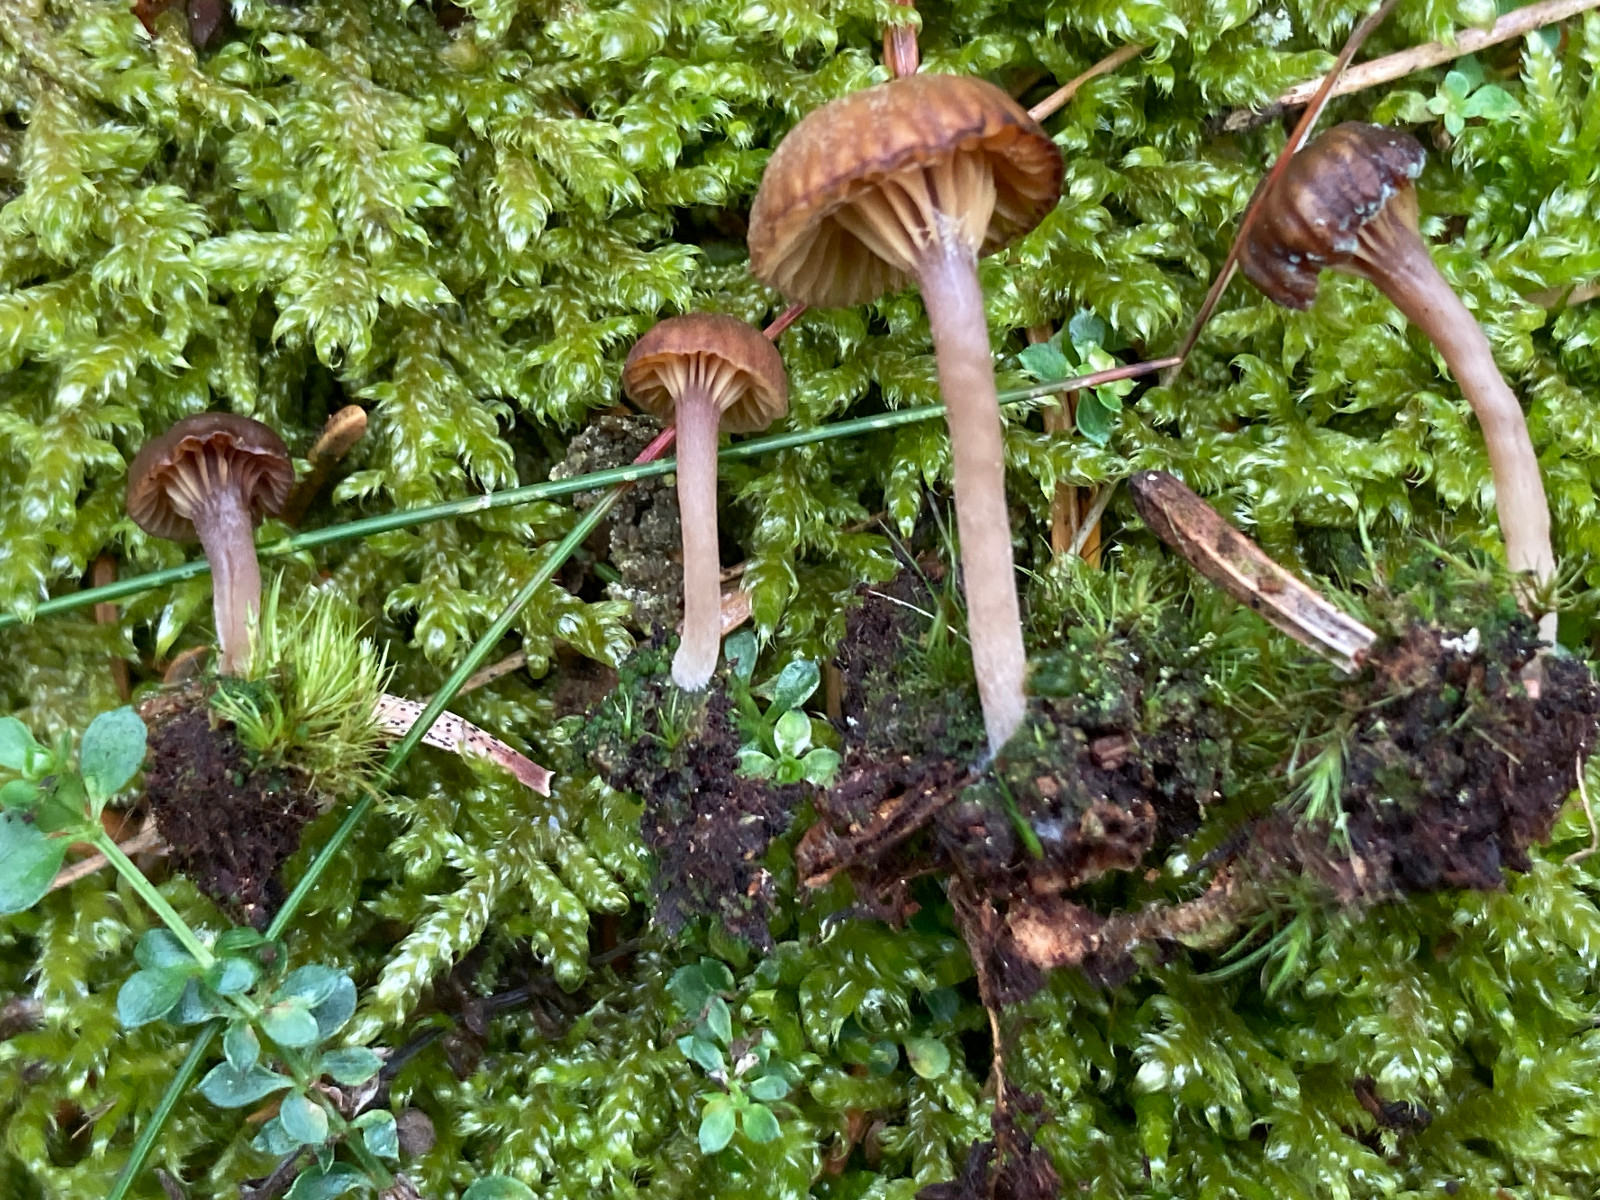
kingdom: Fungi
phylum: Basidiomycota
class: Agaricomycetes
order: Agaricales
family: Hygrophoraceae
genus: Lichenomphalia
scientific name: Lichenomphalia umbellifera
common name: tørve-lavhat
